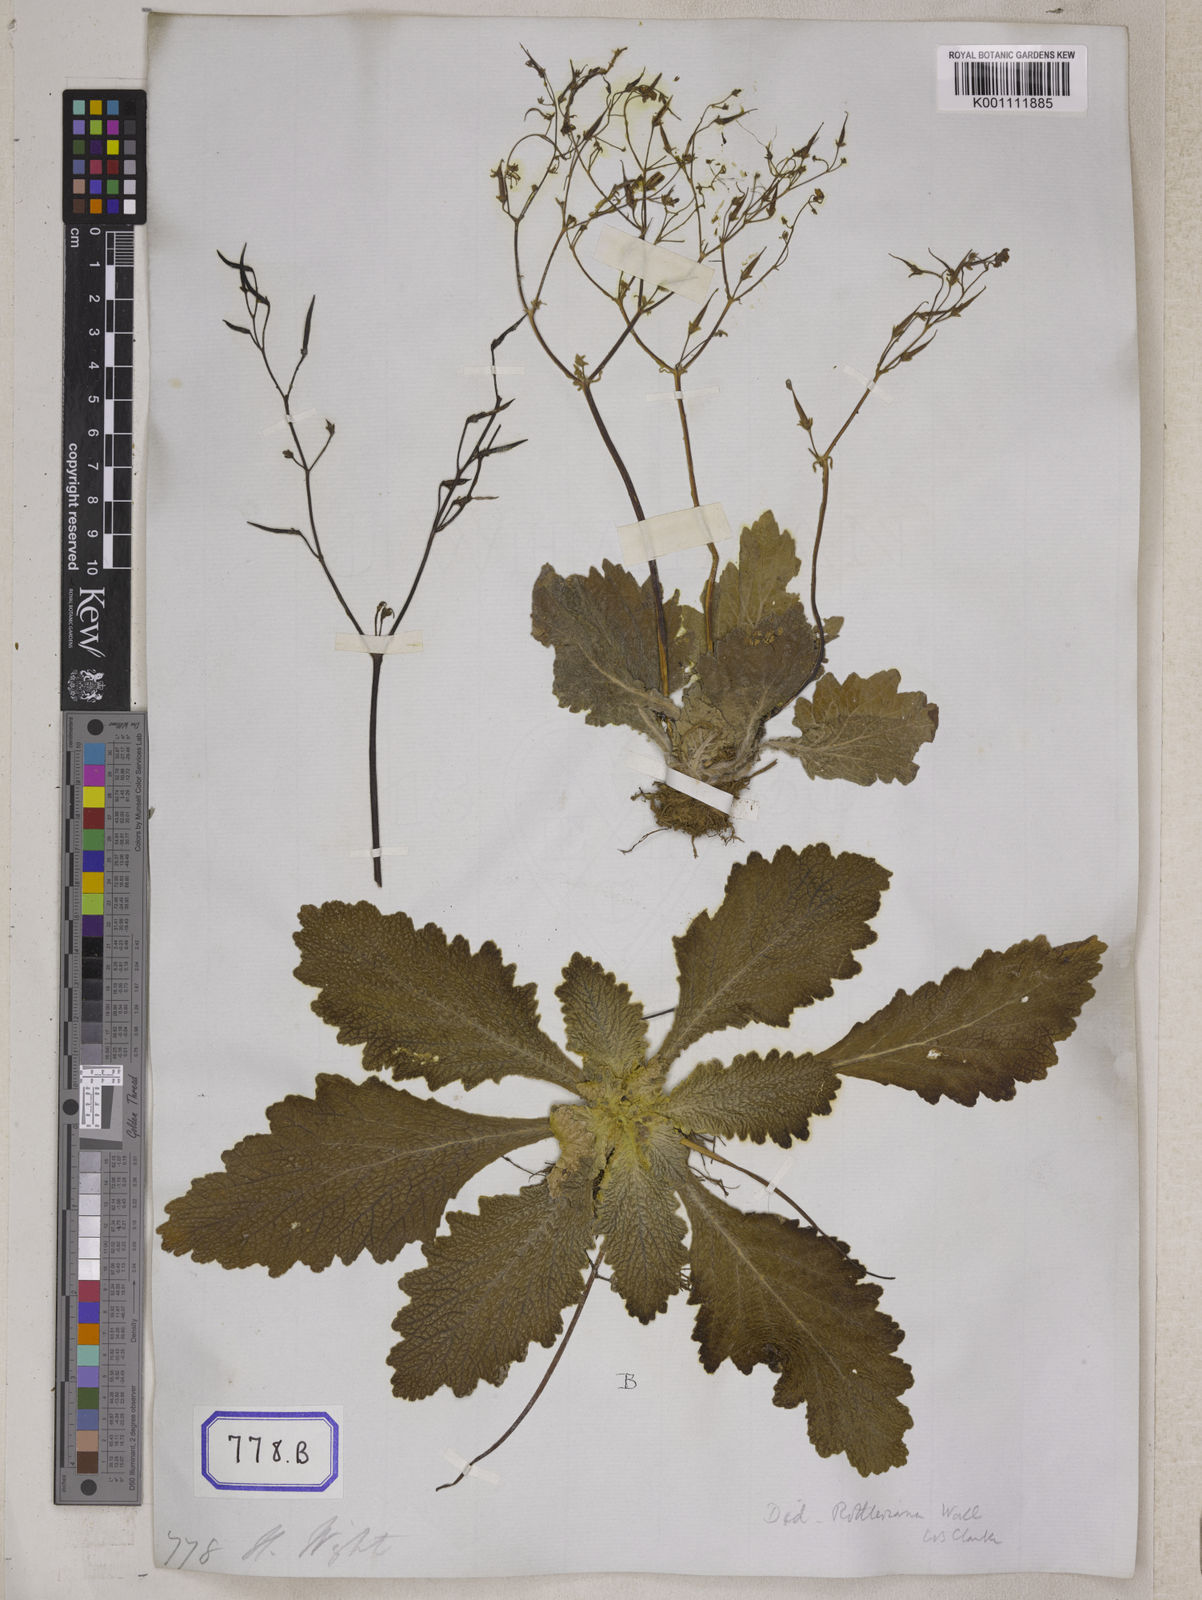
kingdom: Plantae
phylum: Tracheophyta
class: Magnoliopsida
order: Lamiales
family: Gesneriaceae
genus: Didymocarpus
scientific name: Didymocarpus
